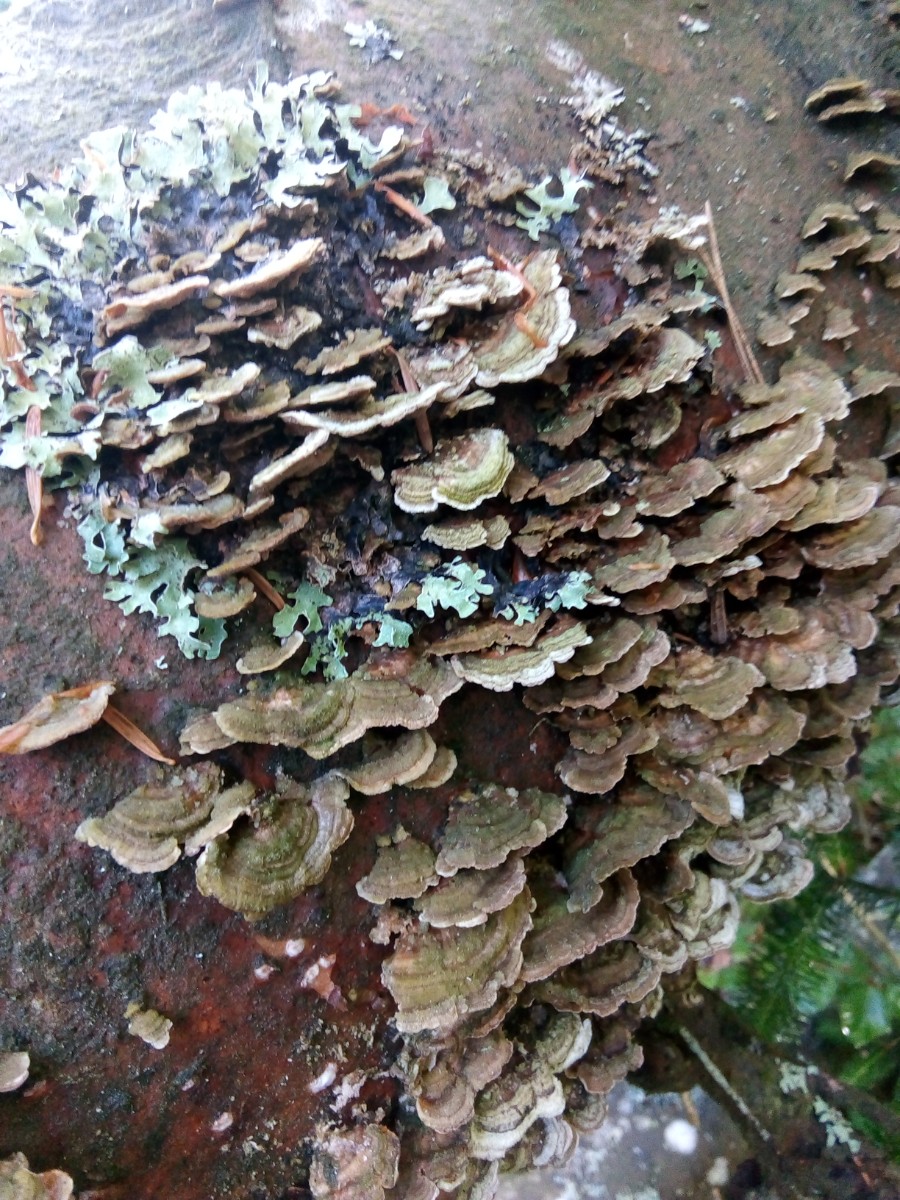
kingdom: Fungi
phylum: Basidiomycota
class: Agaricomycetes
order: Hymenochaetales
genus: Trichaptum
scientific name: Trichaptum abietinum
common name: almindelig violporesvamp
